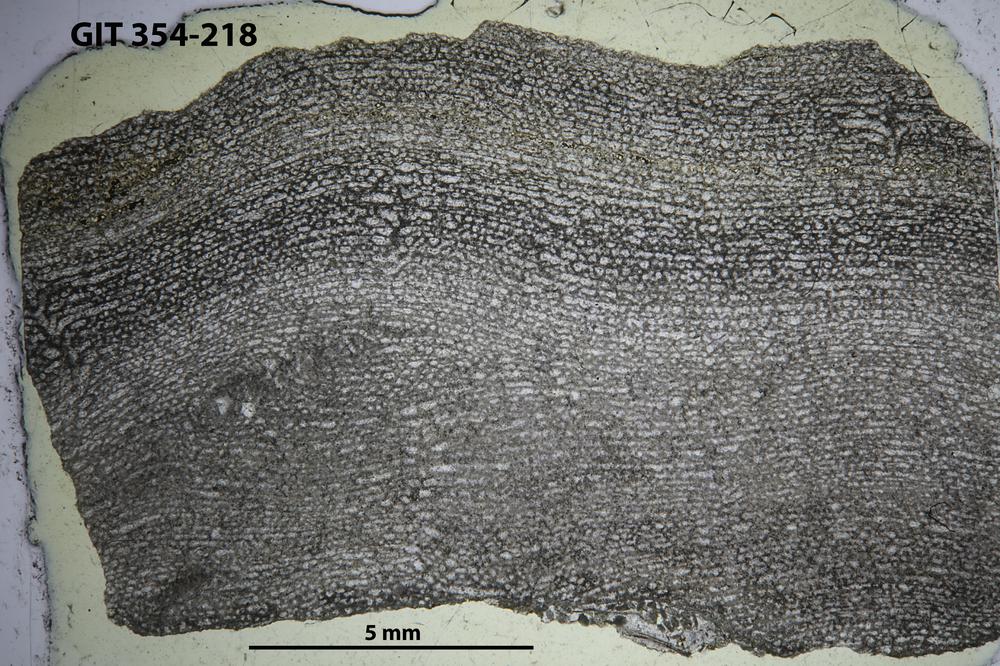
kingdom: Animalia
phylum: Porifera
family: Clathrodictyidae
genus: Clathrodictyon
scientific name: Clathrodictyon kudriavzevi
